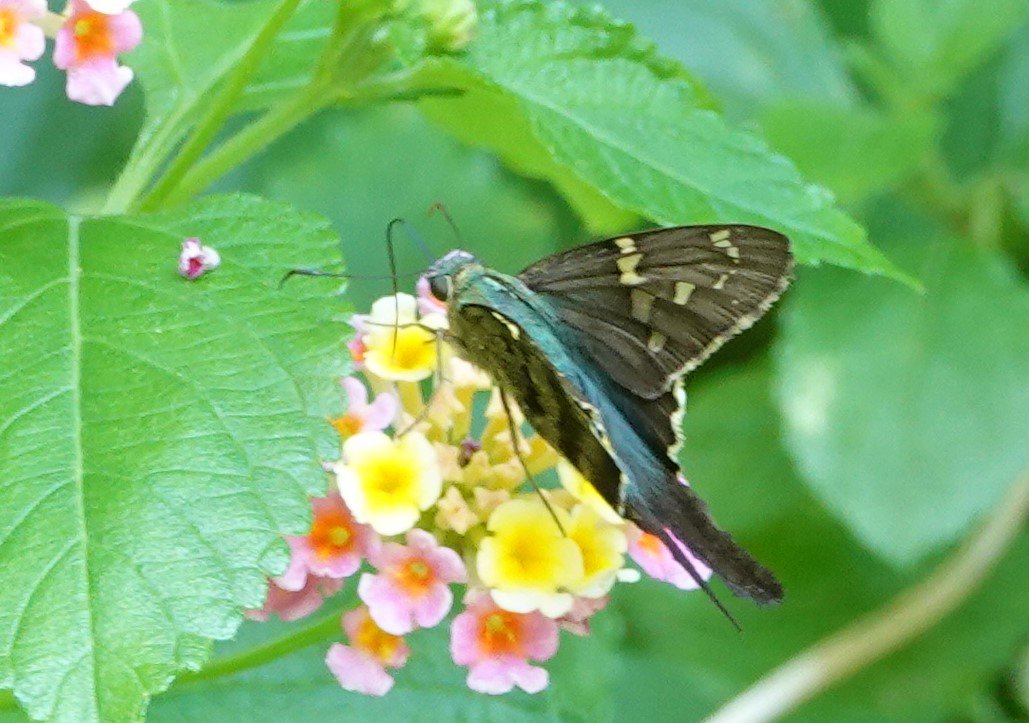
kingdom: Animalia
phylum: Arthropoda
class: Insecta
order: Lepidoptera
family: Hesperiidae
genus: Urbanus
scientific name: Urbanus proteus
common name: Long-tailed Skipper
